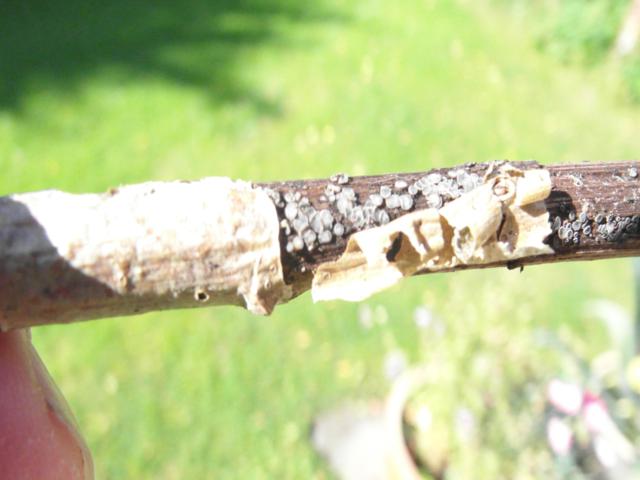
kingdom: Fungi
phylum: Ascomycota
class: Leotiomycetes
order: Helotiales
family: Mollisiaceae
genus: Mollisia
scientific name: Mollisia cinerea
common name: almindelig gråskive
